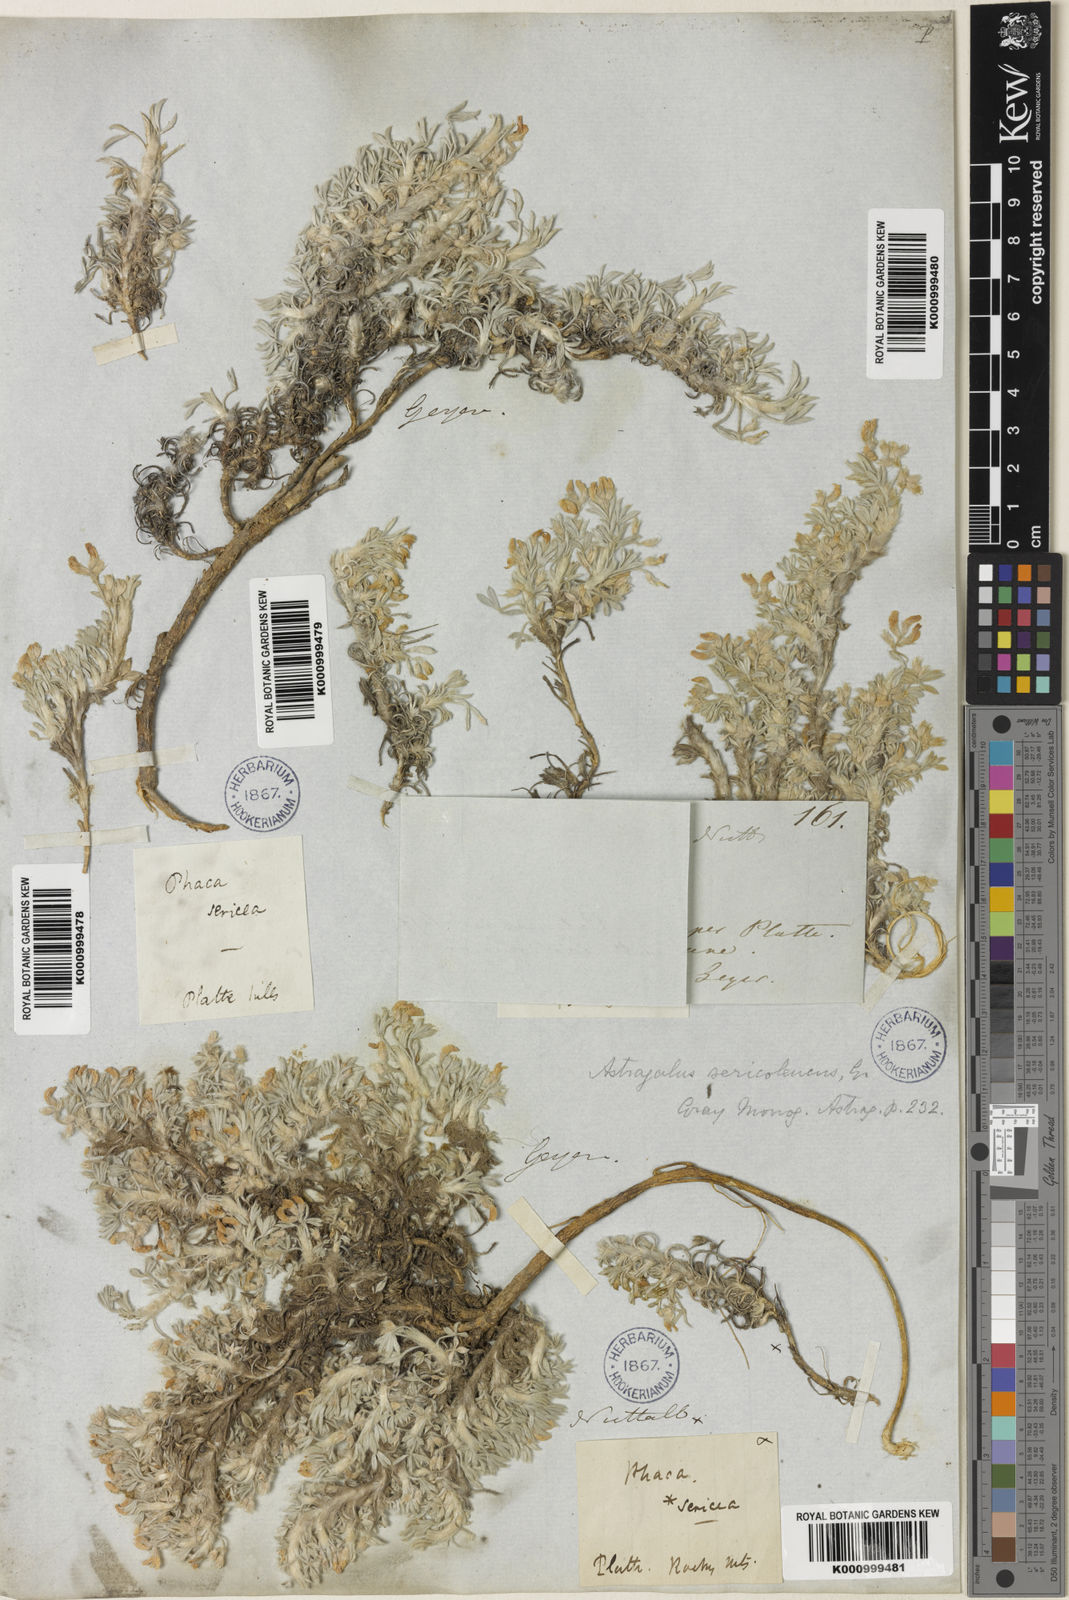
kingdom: Plantae
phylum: Tracheophyta
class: Magnoliopsida
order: Fabales
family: Fabaceae
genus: Astragalus
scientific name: Astragalus sericoleucus
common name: Silky orophaca
